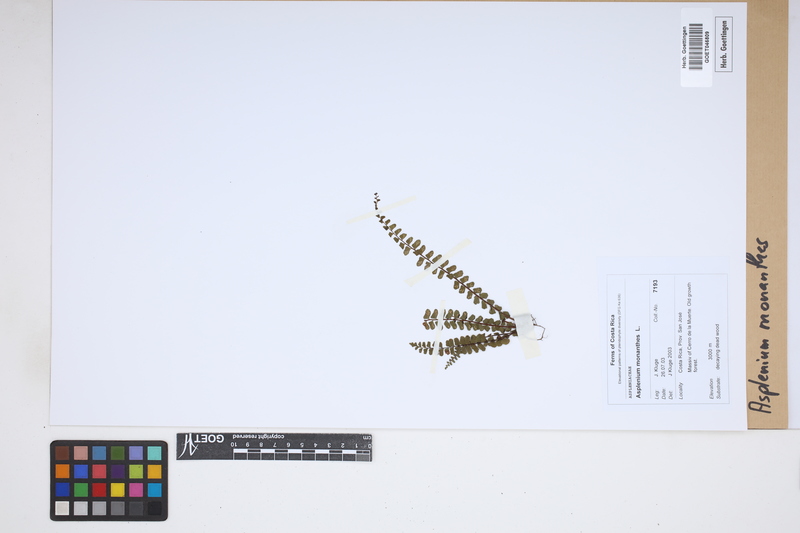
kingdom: Plantae
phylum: Tracheophyta
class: Polypodiopsida
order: Polypodiales
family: Aspleniaceae
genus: Asplenium
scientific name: Asplenium monanthes
